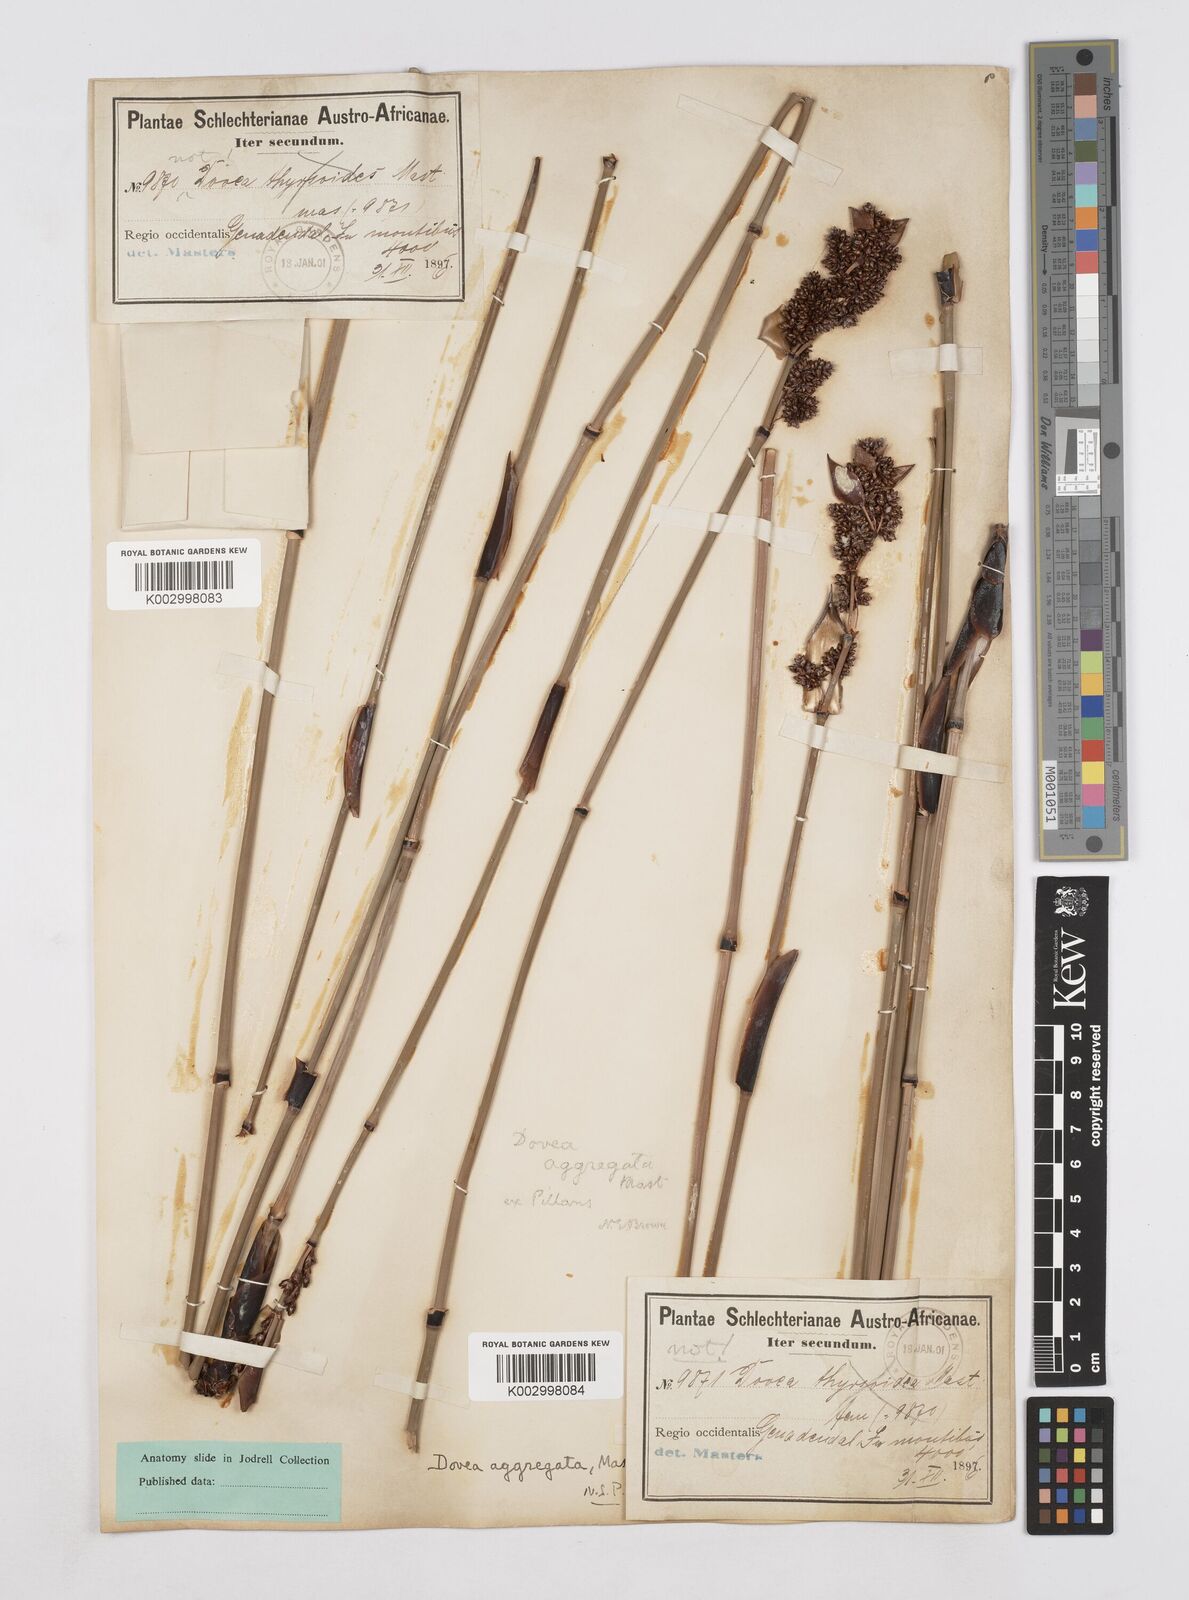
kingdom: Plantae
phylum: Tracheophyta
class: Liliopsida
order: Poales
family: Restionaceae
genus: Elegia
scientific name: Elegia aggregata
